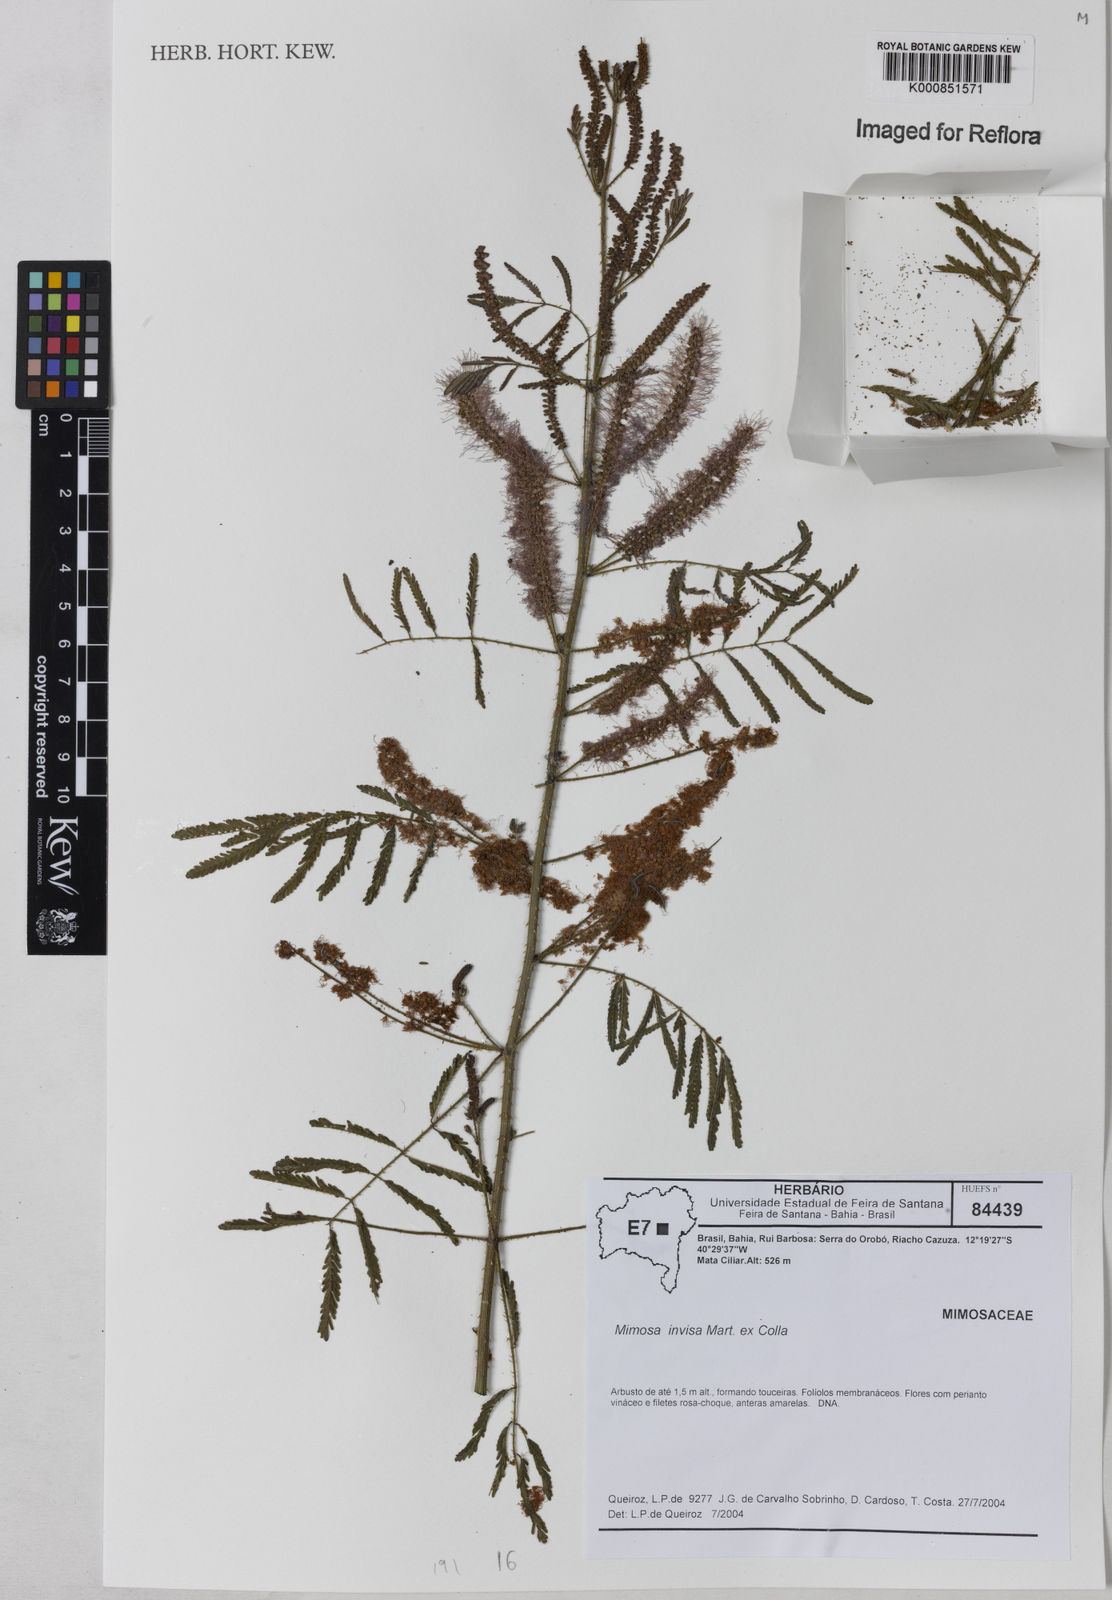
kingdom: Plantae
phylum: Tracheophyta
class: Magnoliopsida
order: Fabales
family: Fabaceae
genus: Mimosa
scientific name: Mimosa
